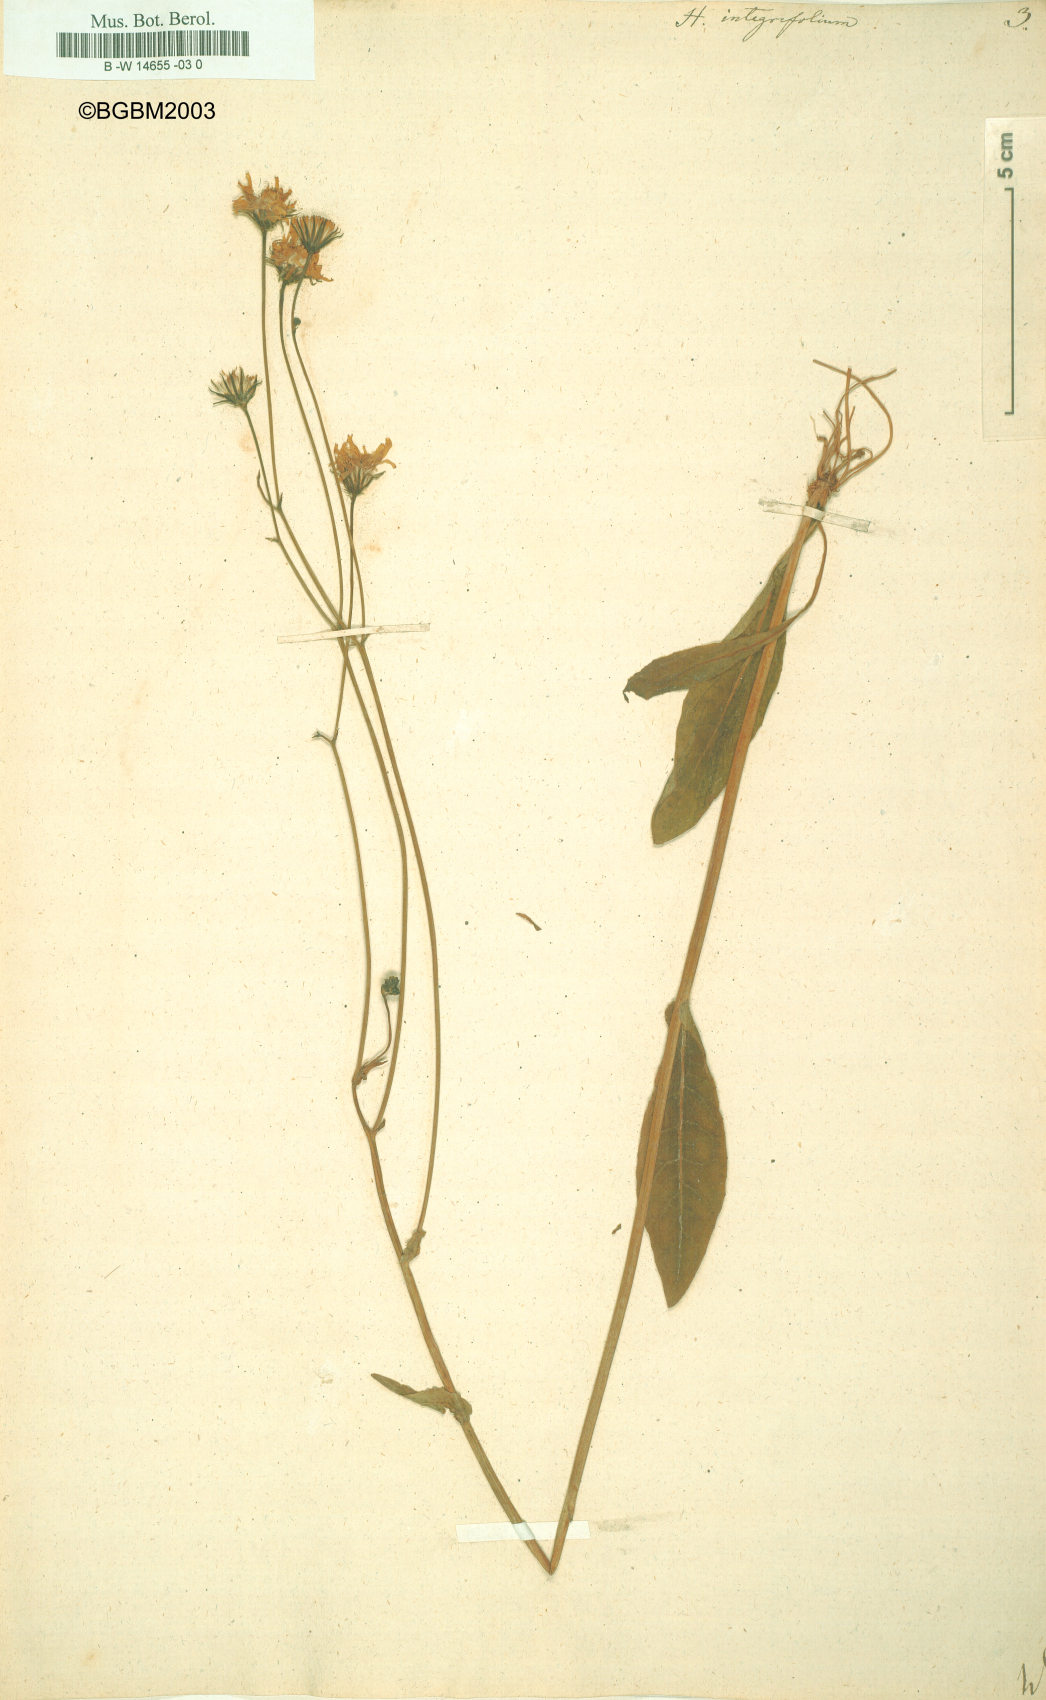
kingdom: Plantae
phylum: Tracheophyta
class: Magnoliopsida
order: Asterales
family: Asteraceae
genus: Hieracium
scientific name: Hieracium integrifolium
